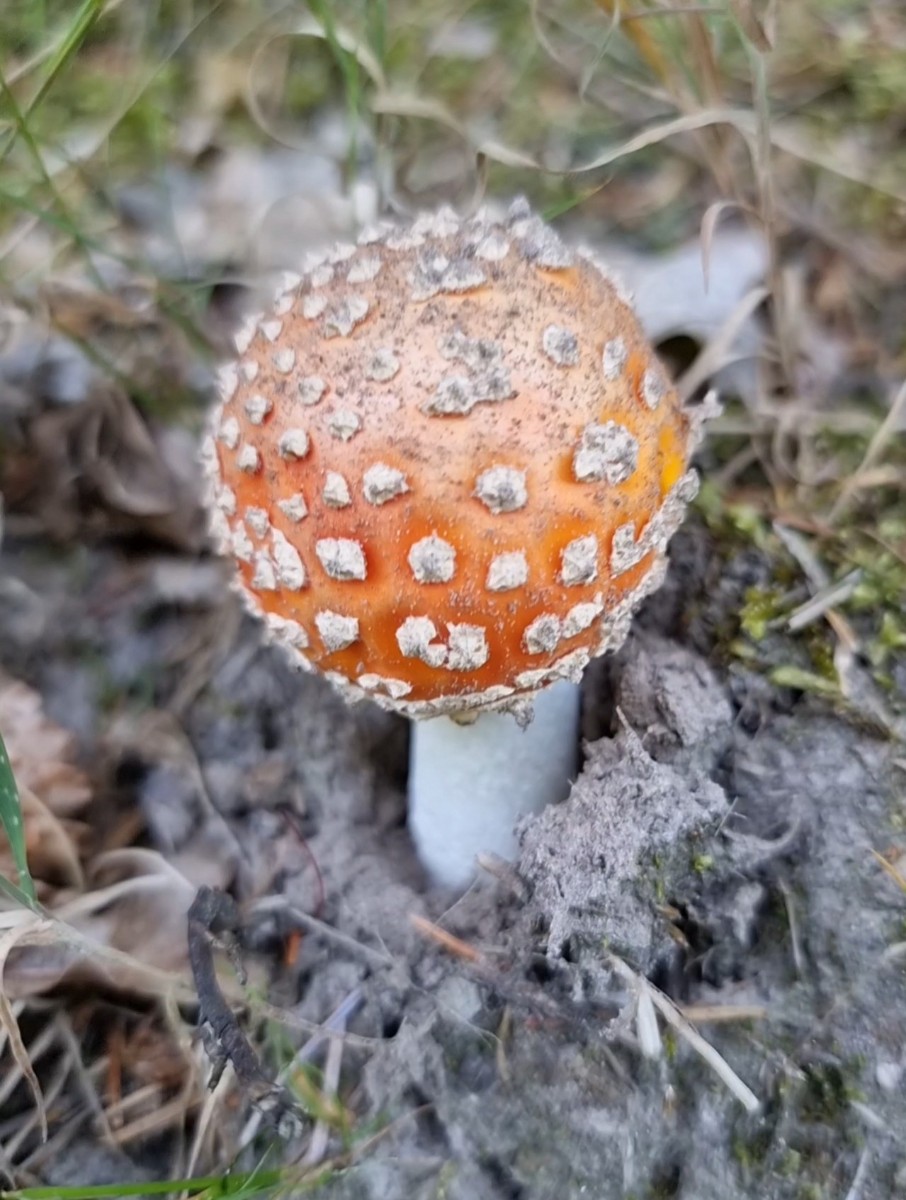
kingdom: Fungi
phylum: Basidiomycota
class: Agaricomycetes
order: Agaricales
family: Amanitaceae
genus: Amanita
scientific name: Amanita muscaria
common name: rød fluesvamp
